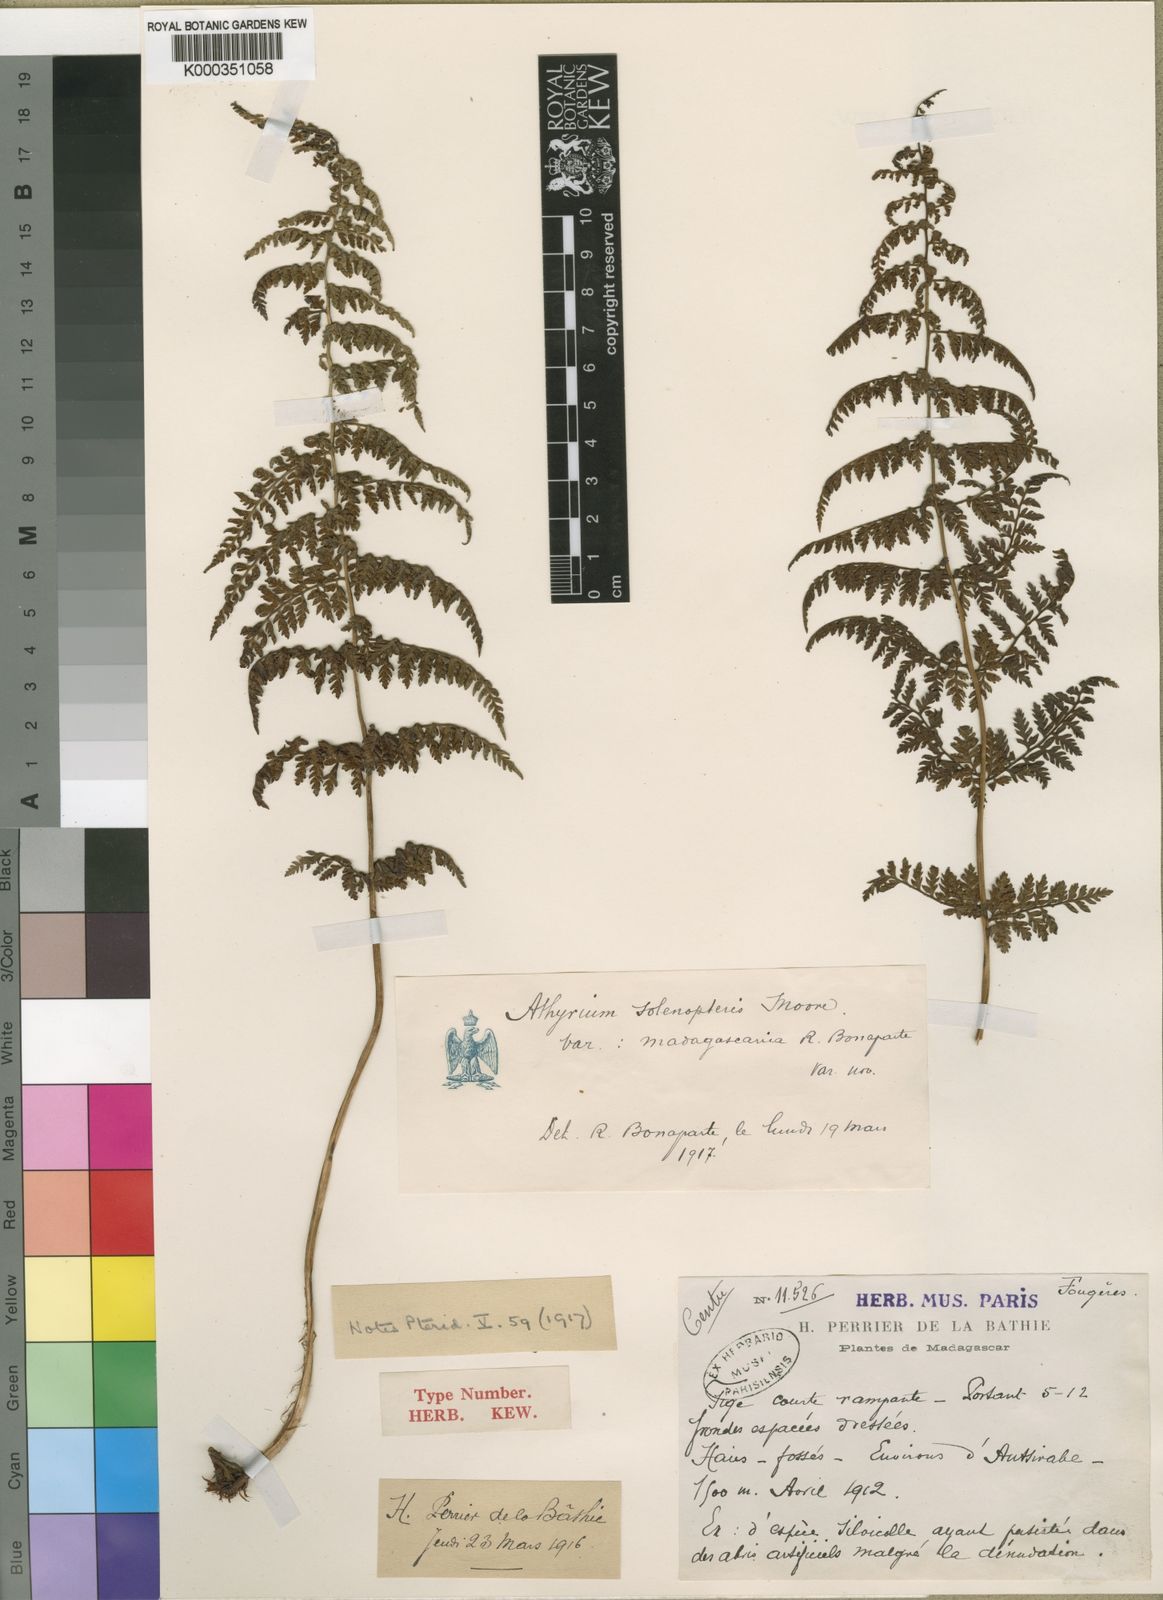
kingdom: Plantae
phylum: Tracheophyta
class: Polypodiopsida
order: Polypodiales
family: Athyriaceae
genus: Athyrium
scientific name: Athyrium solenopteris
